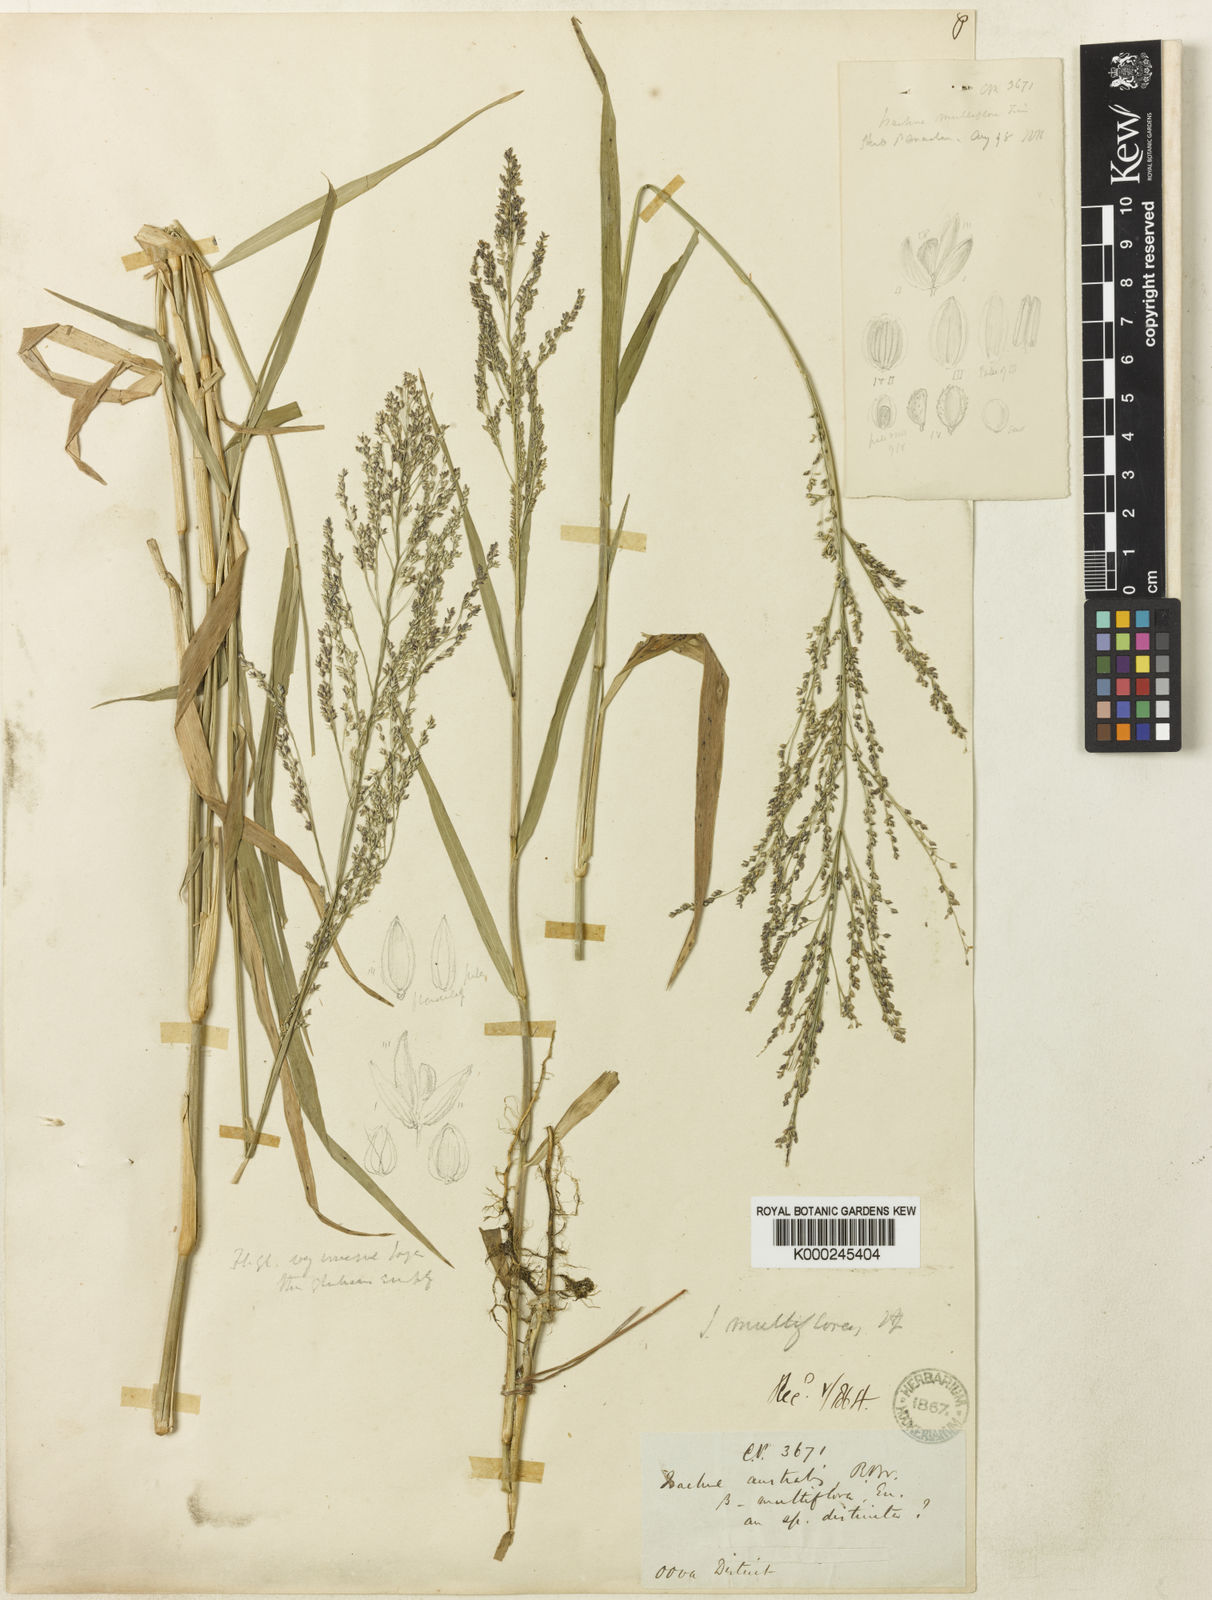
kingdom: Plantae
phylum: Tracheophyta
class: Liliopsida
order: Poales
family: Poaceae
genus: Isachne
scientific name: Isachne multiflora
